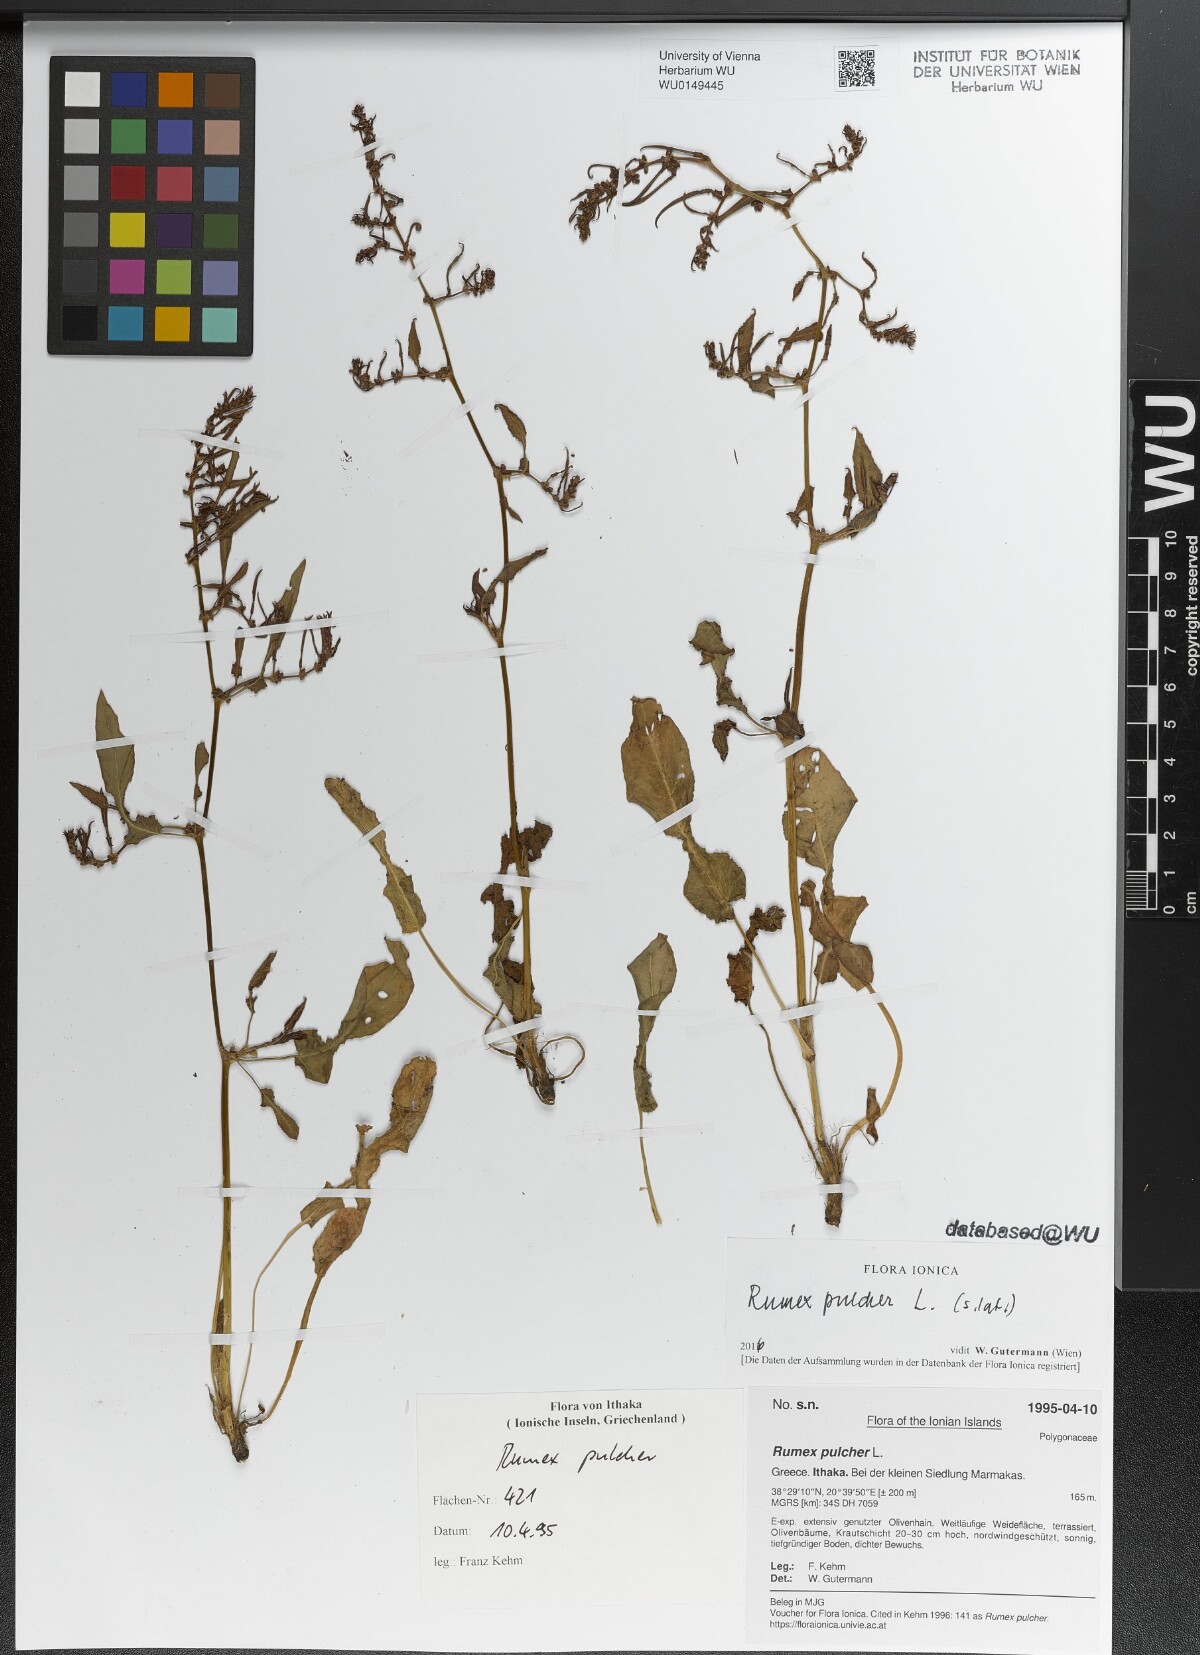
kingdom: Plantae
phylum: Tracheophyta
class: Magnoliopsida
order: Caryophyllales
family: Polygonaceae
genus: Rumex
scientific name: Rumex pulcher
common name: Fiddle dock
